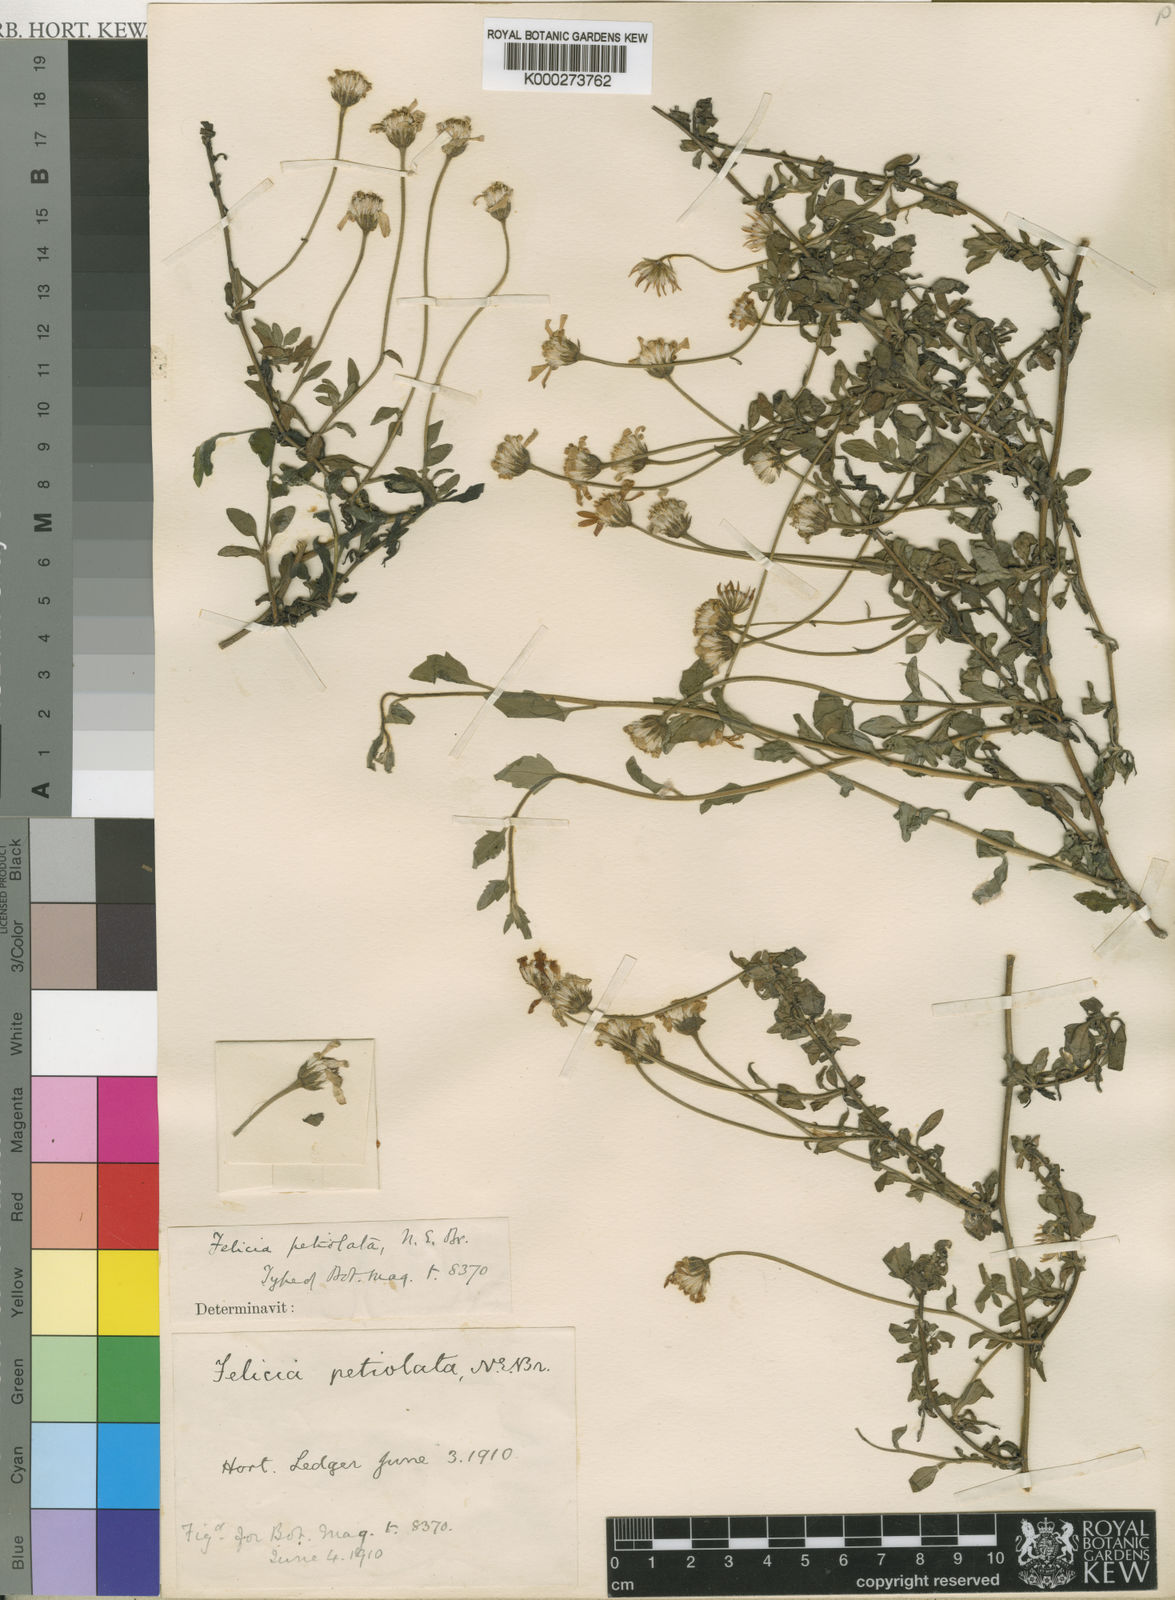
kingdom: Plantae
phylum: Tracheophyta
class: Magnoliopsida
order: Asterales
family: Asteraceae
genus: Felicia
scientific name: Felicia petiolata
